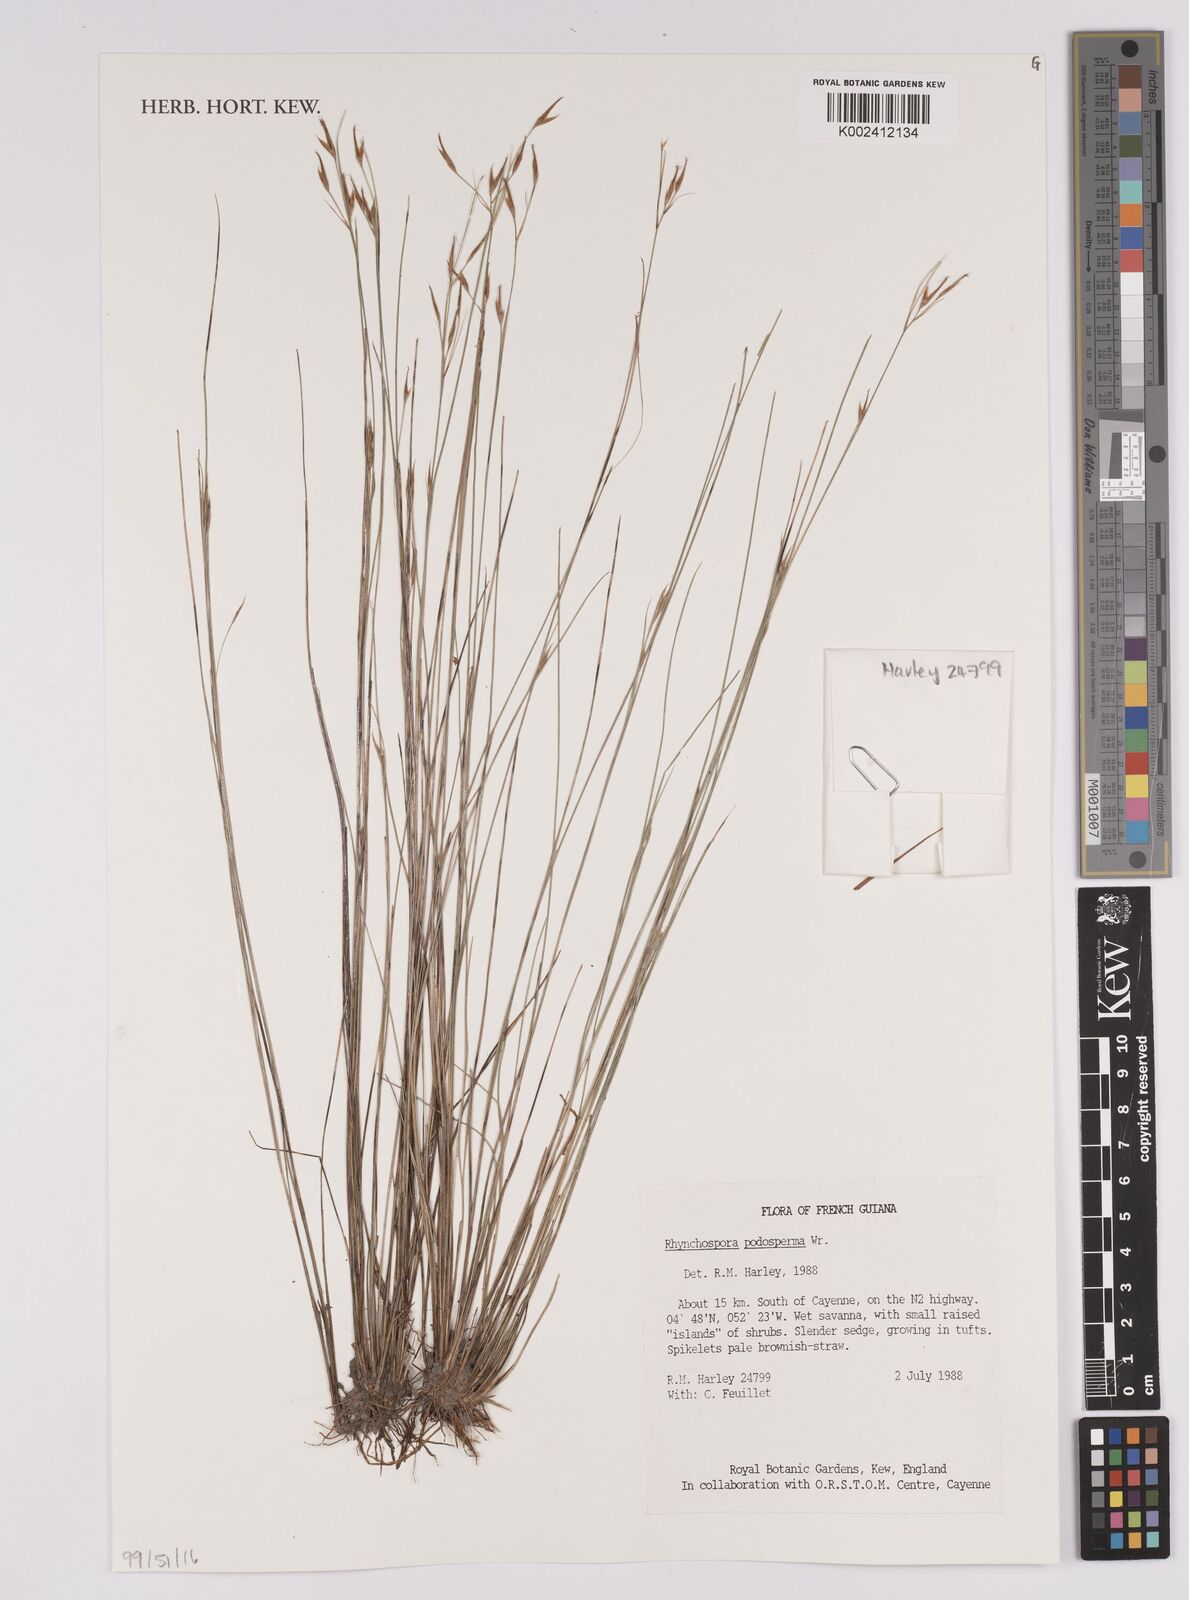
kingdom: Plantae
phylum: Tracheophyta
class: Liliopsida
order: Poales
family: Cyperaceae
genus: Rhynchospora
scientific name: Rhynchospora filiformis
